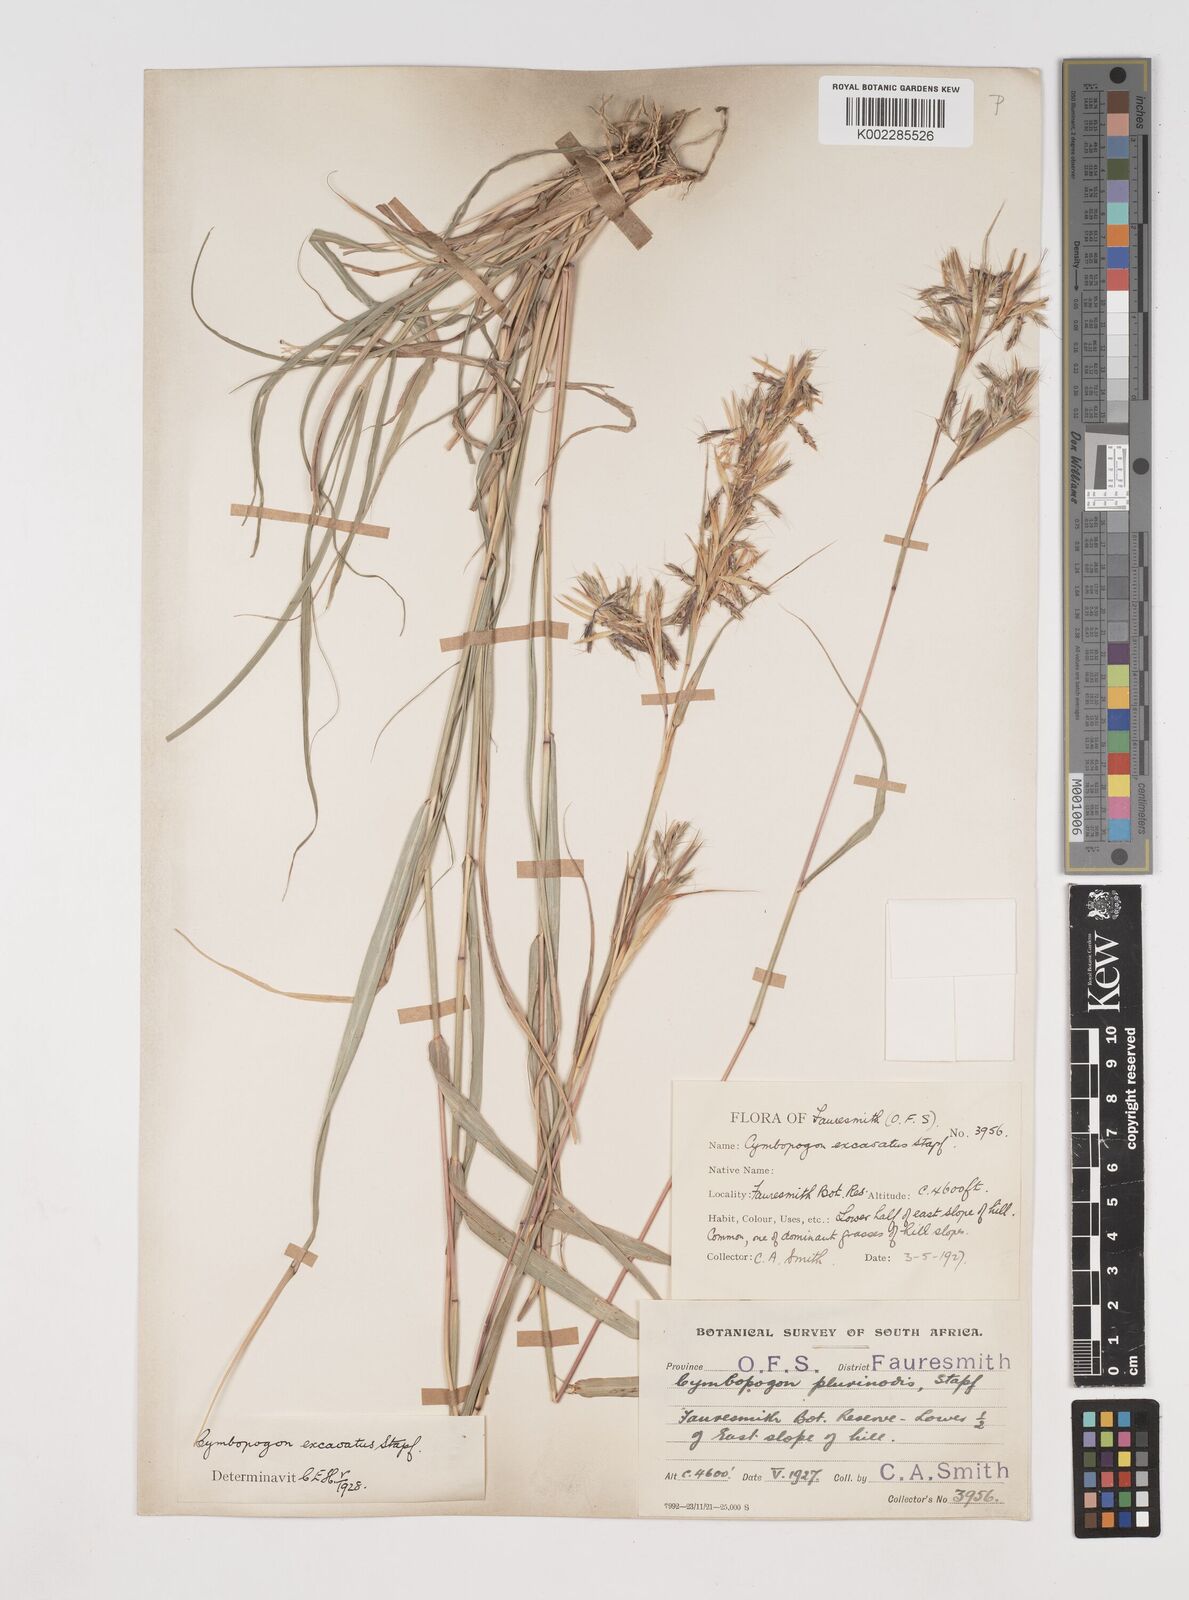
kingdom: Plantae
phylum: Tracheophyta
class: Liliopsida
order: Poales
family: Poaceae
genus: Cymbopogon
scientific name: Cymbopogon caesius
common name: Kachi grass
